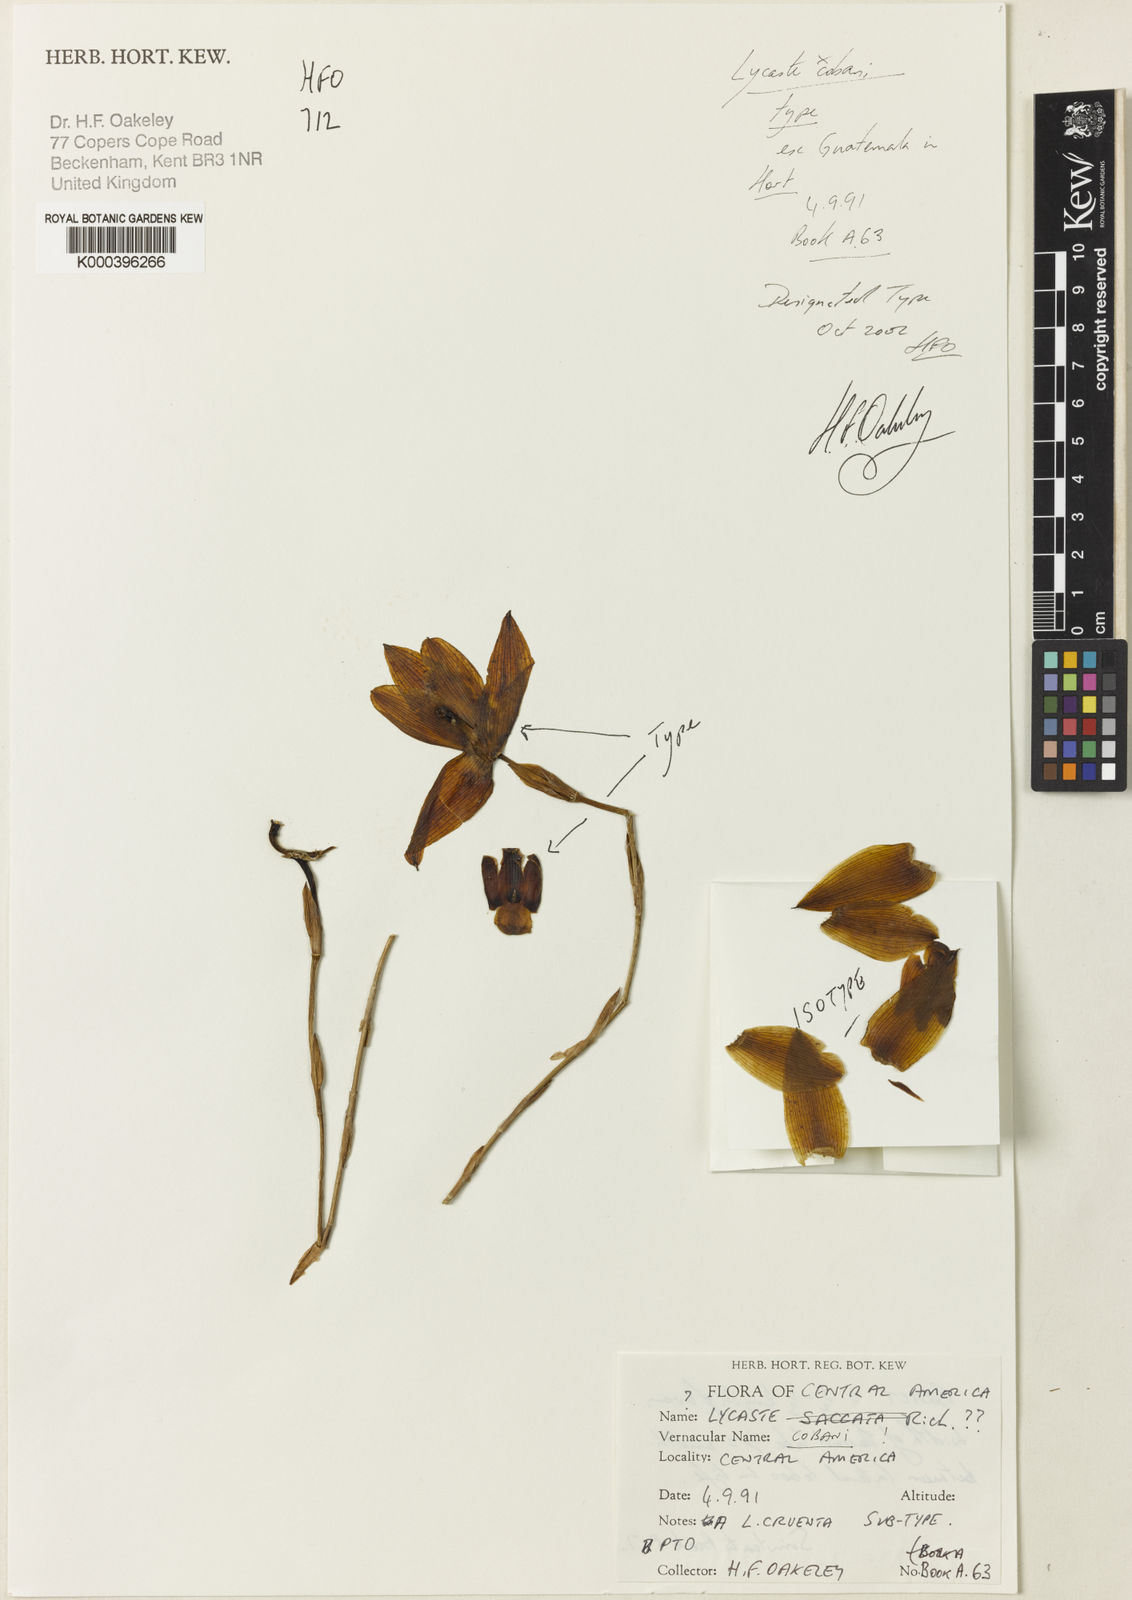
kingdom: Plantae
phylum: Tracheophyta
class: Liliopsida
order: Asparagales
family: Orchidaceae
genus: Lycaste
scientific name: Lycaste cobani
